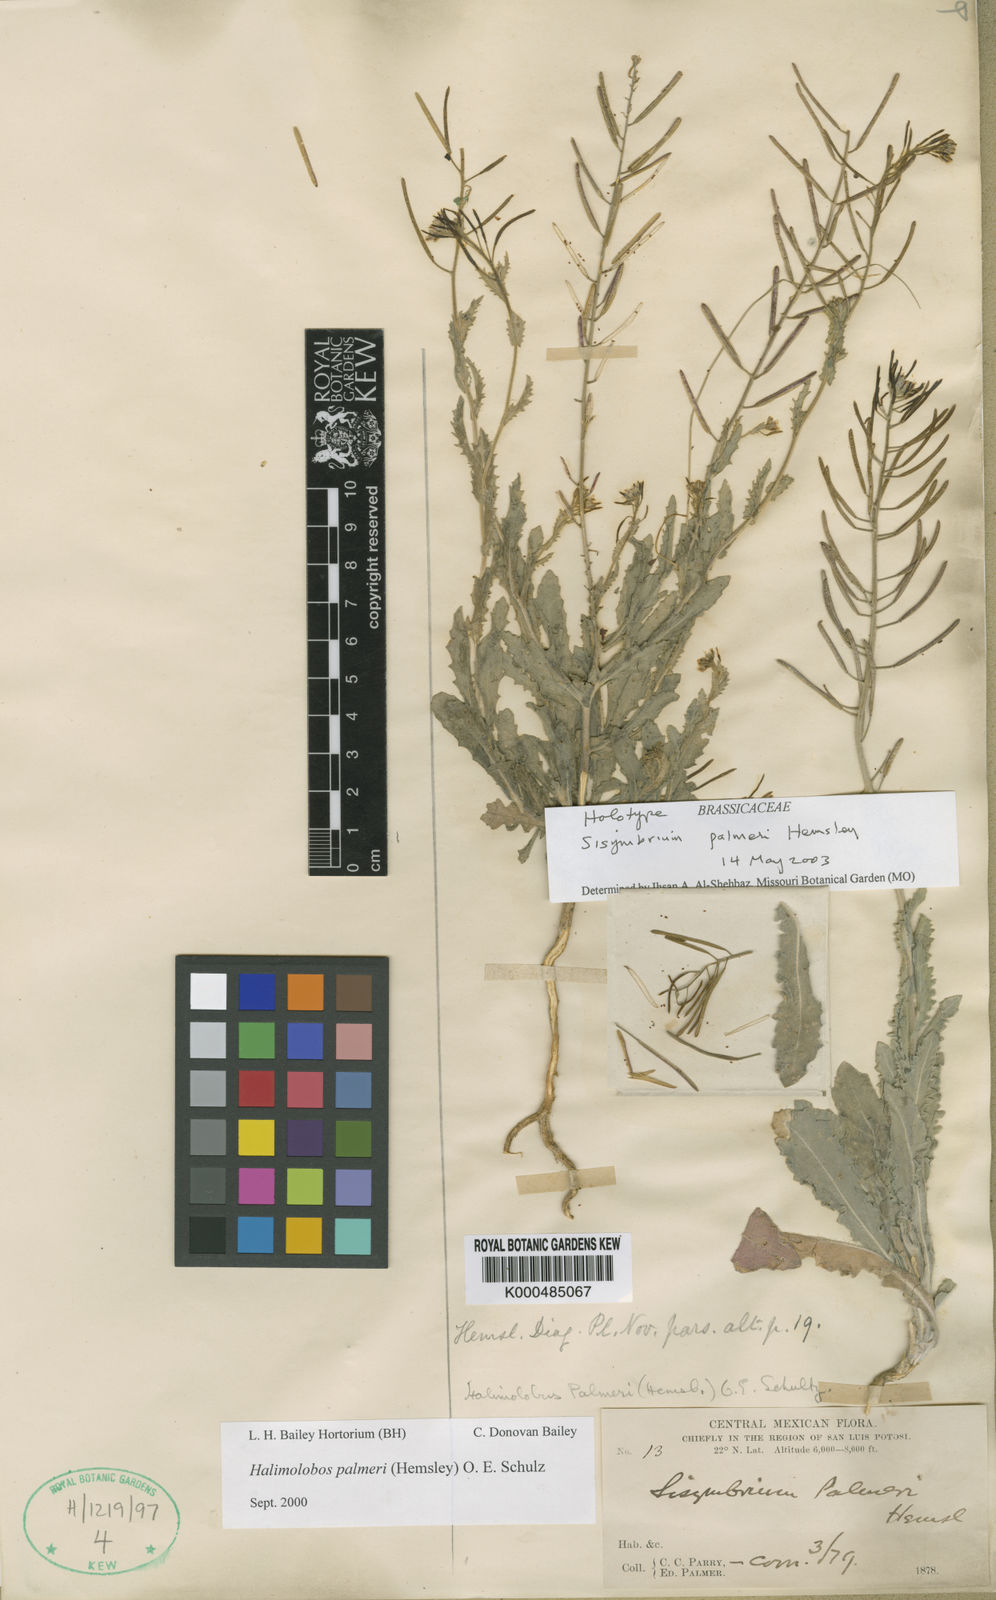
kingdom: Plantae
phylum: Tracheophyta
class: Magnoliopsida
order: Brassicales
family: Brassicaceae
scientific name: Brassicaceae
